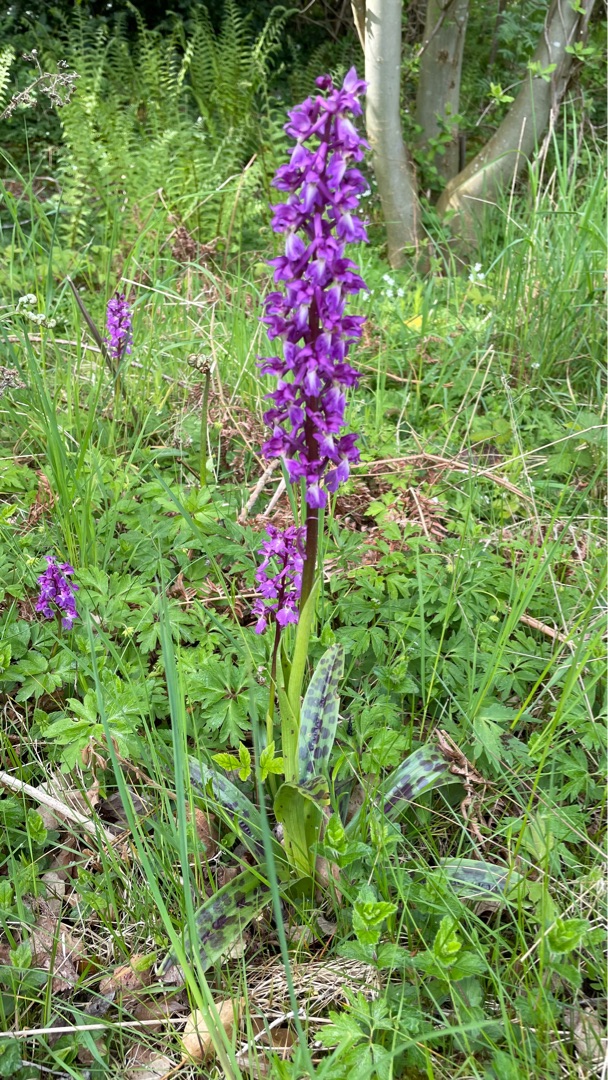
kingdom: Plantae
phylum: Tracheophyta
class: Liliopsida
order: Asparagales
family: Orchidaceae
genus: Orchis
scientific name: Orchis mascula
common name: Tyndakset gøgeurt
